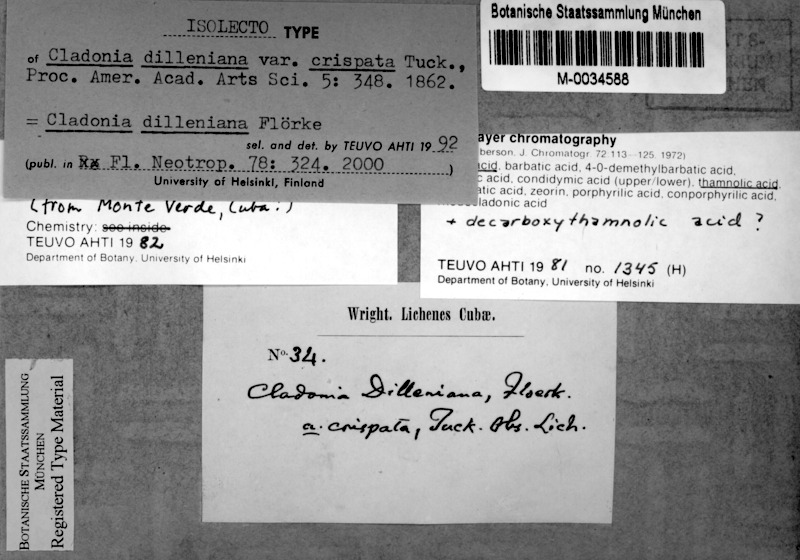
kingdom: Fungi
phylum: Ascomycota
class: Lecanoromycetes
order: Lecanorales
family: Cladoniaceae
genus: Cladonia
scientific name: Cladonia dilleniana
